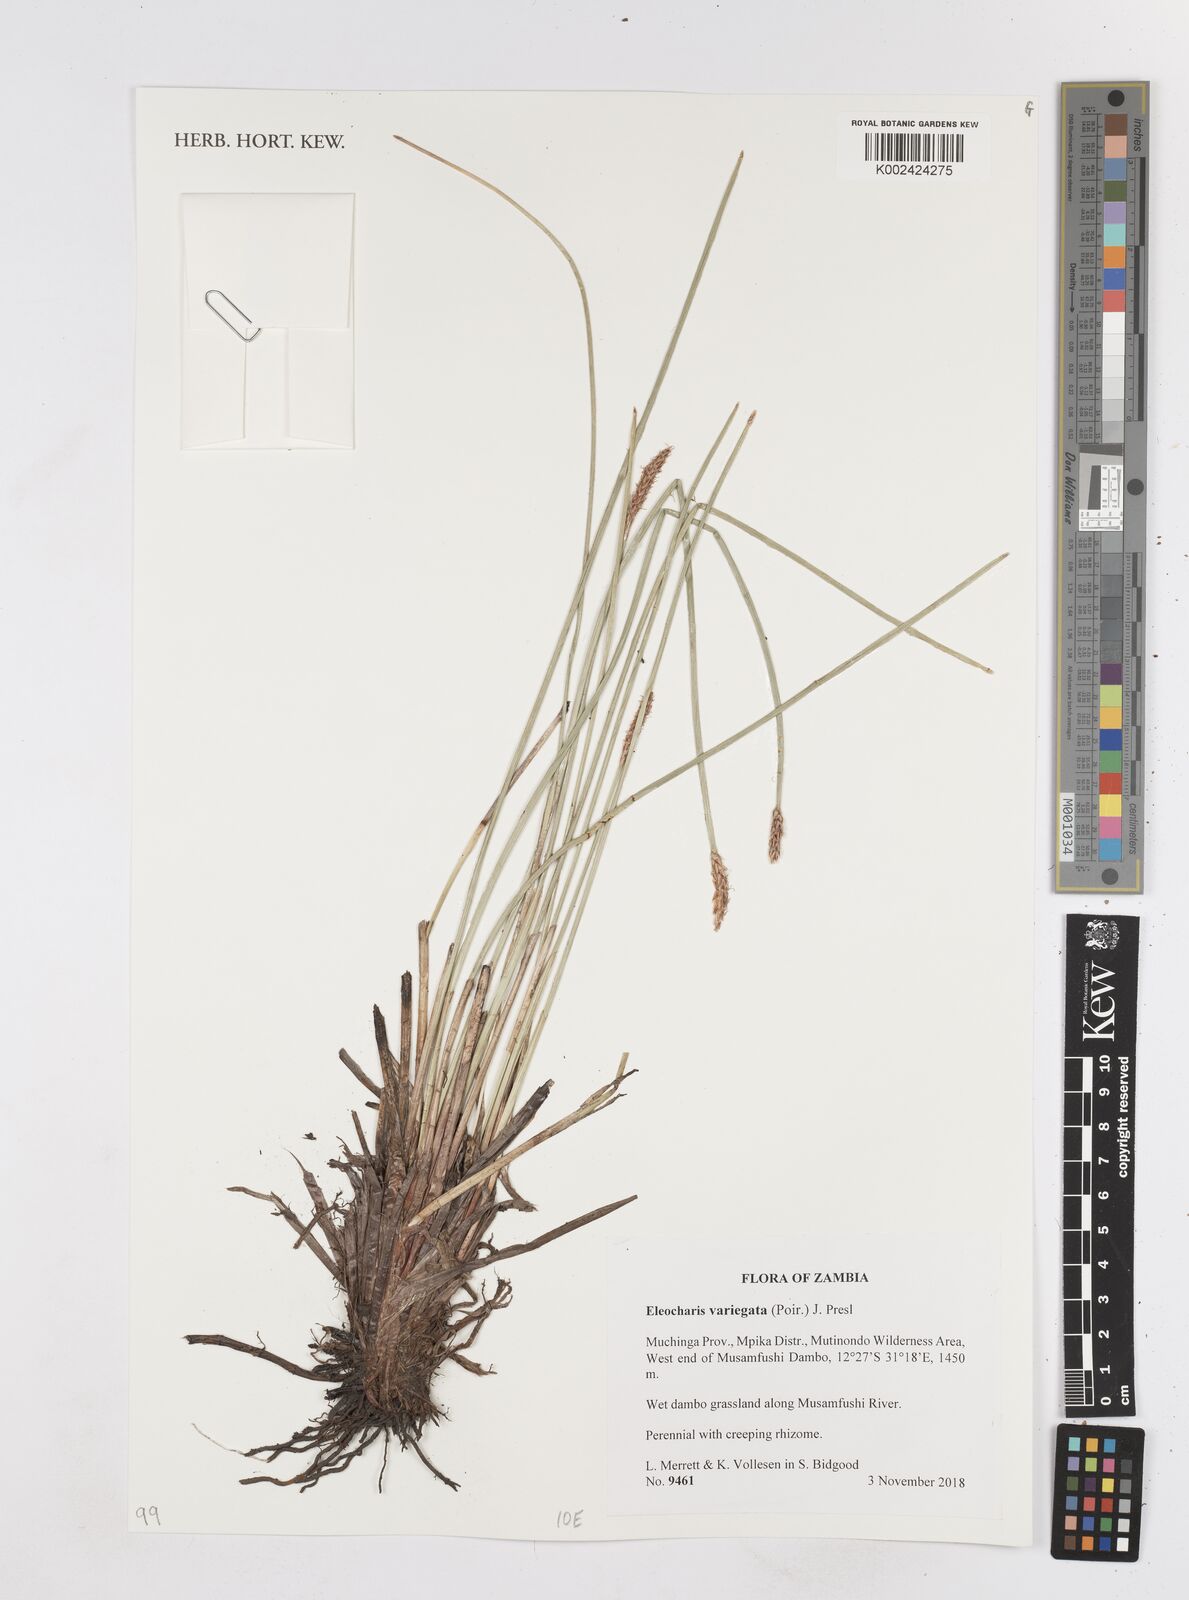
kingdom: Plantae
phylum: Tracheophyta
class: Liliopsida
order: Poales
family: Cyperaceae
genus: Eleocharis
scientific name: Eleocharis variegata
